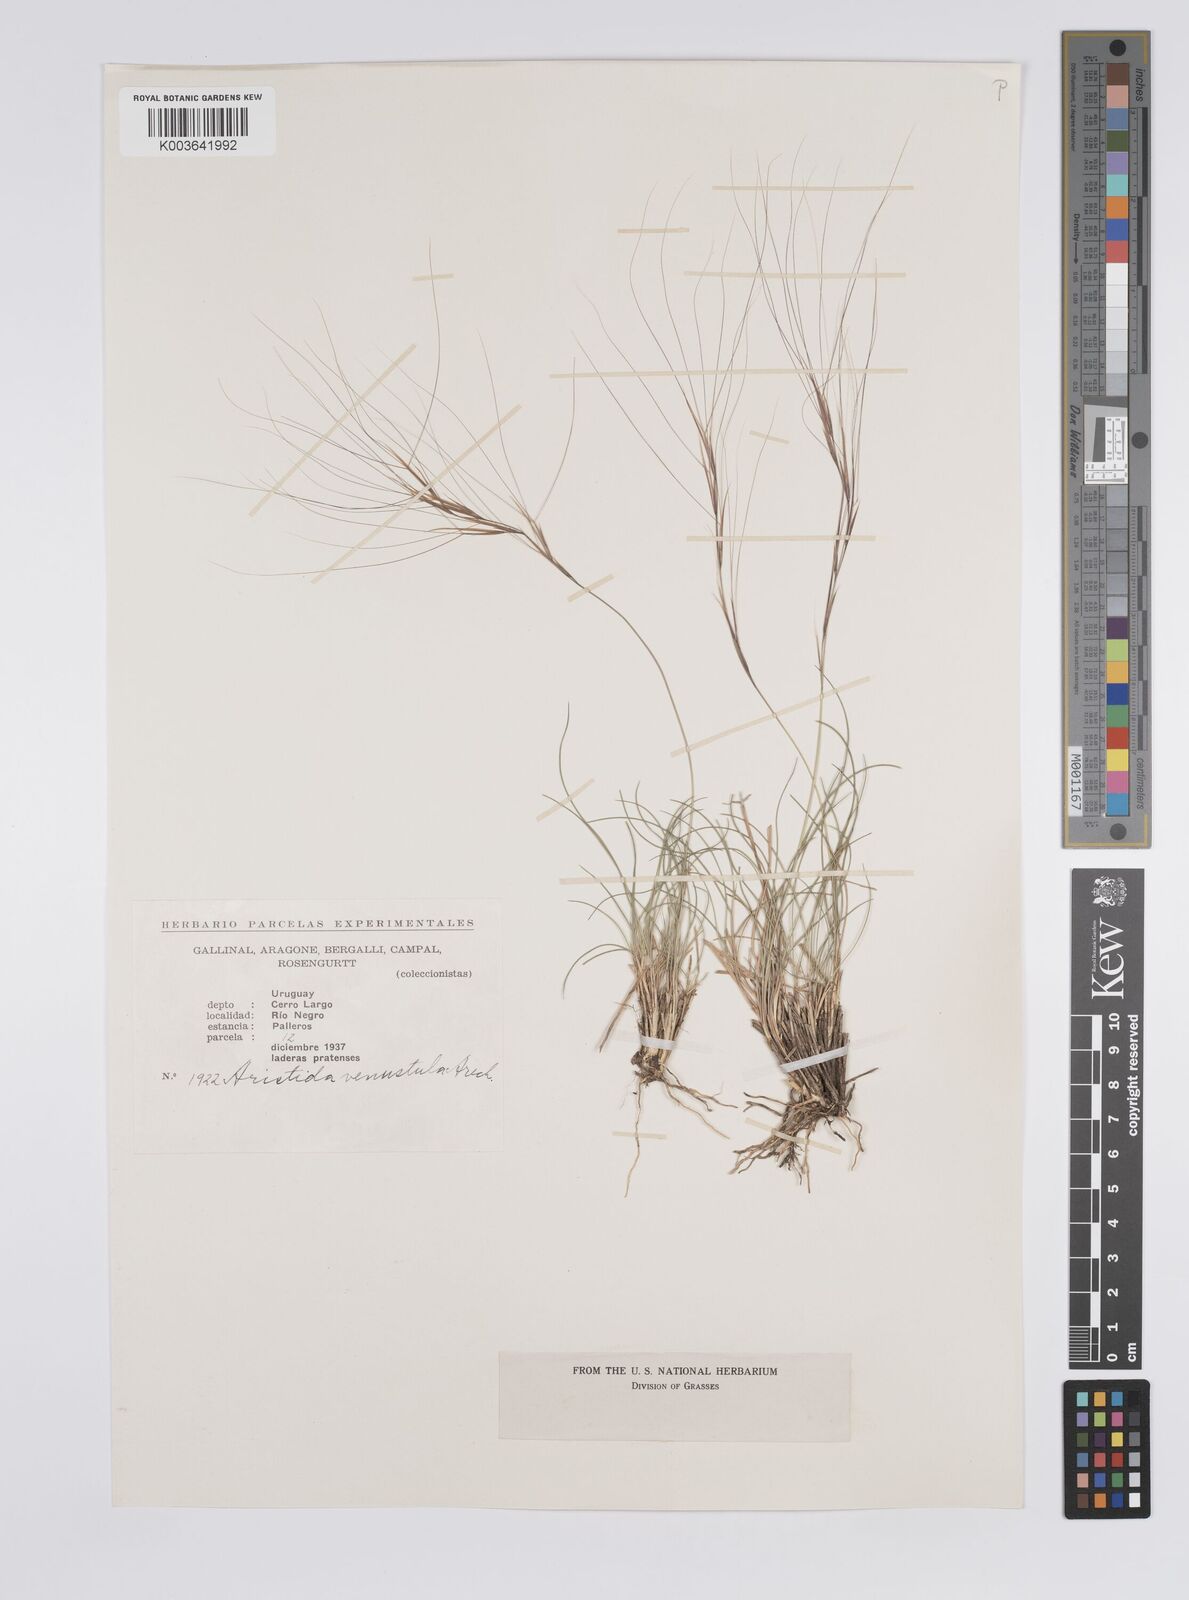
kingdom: Plantae
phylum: Tracheophyta
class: Liliopsida
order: Poales
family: Poaceae
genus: Aristida
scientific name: Aristida venustula
